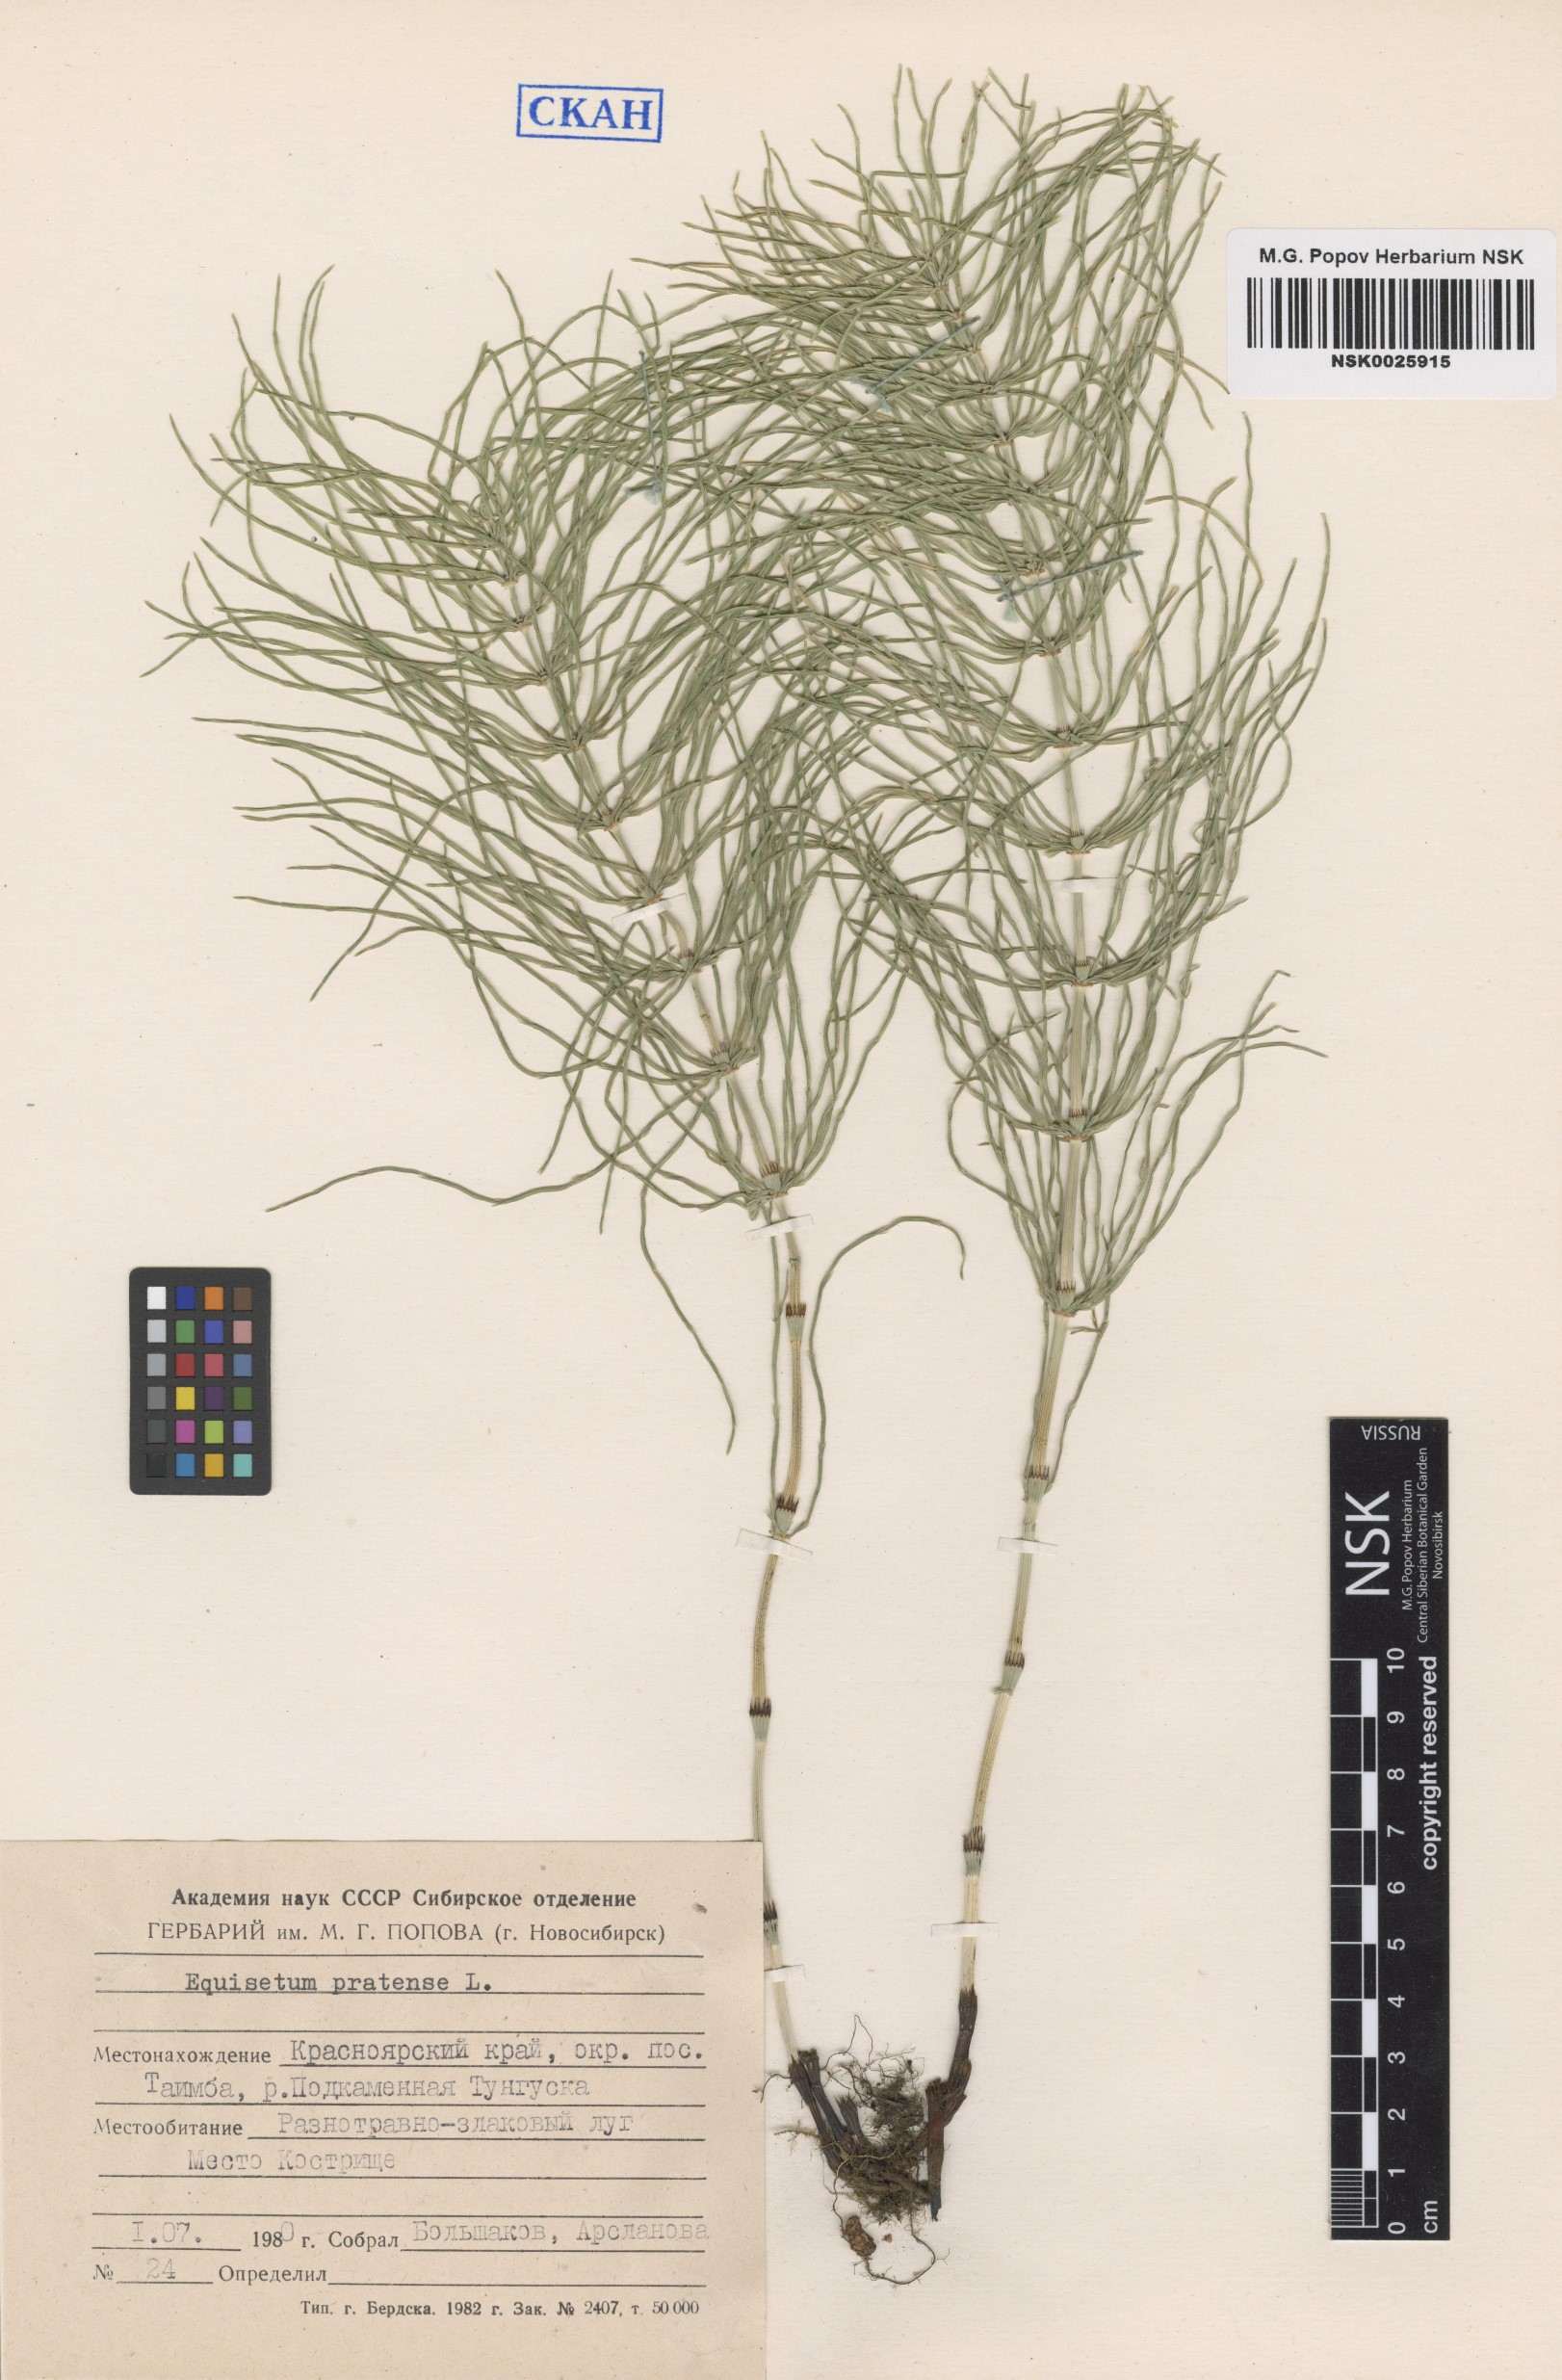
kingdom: Plantae
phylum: Tracheophyta
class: Polypodiopsida
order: Equisetales
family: Equisetaceae
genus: Equisetum
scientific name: Equisetum pratense
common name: Meadow horsetail
